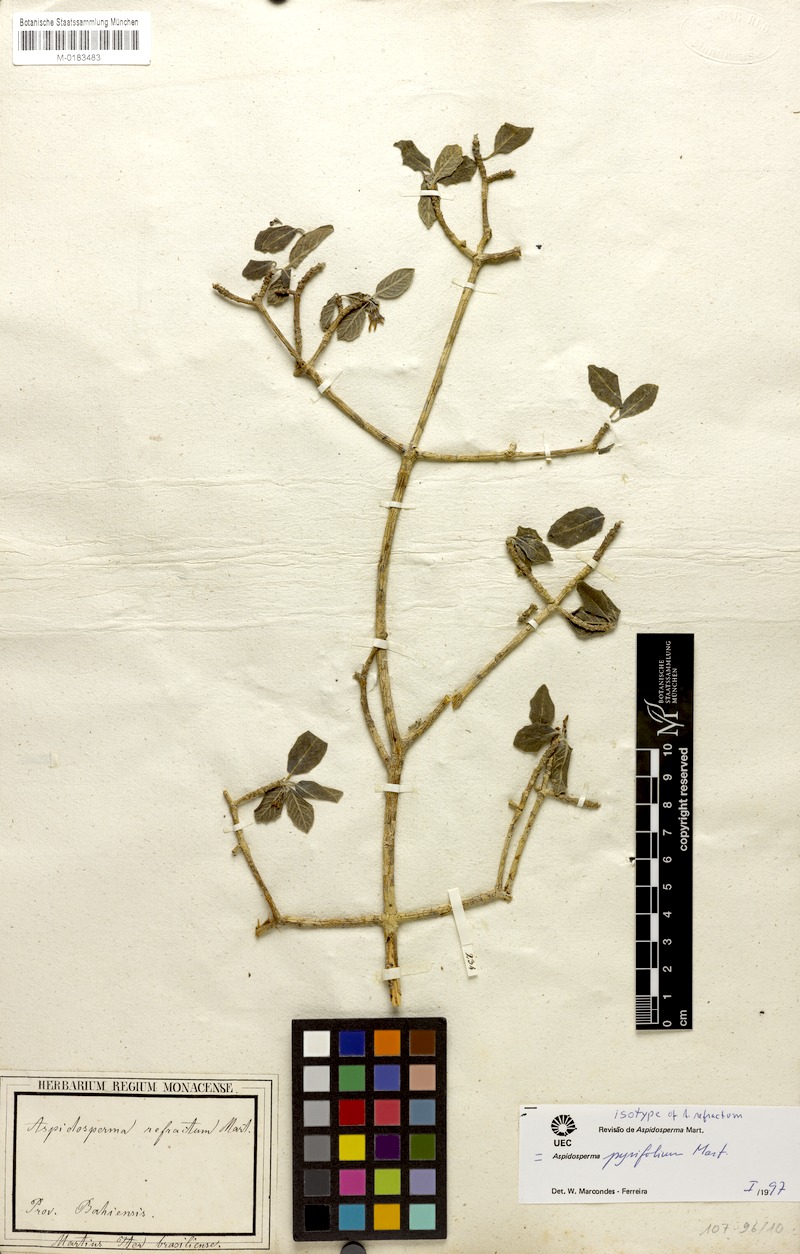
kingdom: Plantae
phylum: Tracheophyta
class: Magnoliopsida
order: Gentianales
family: Apocynaceae
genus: Aspidosperma
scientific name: Aspidosperma pyrifolium
